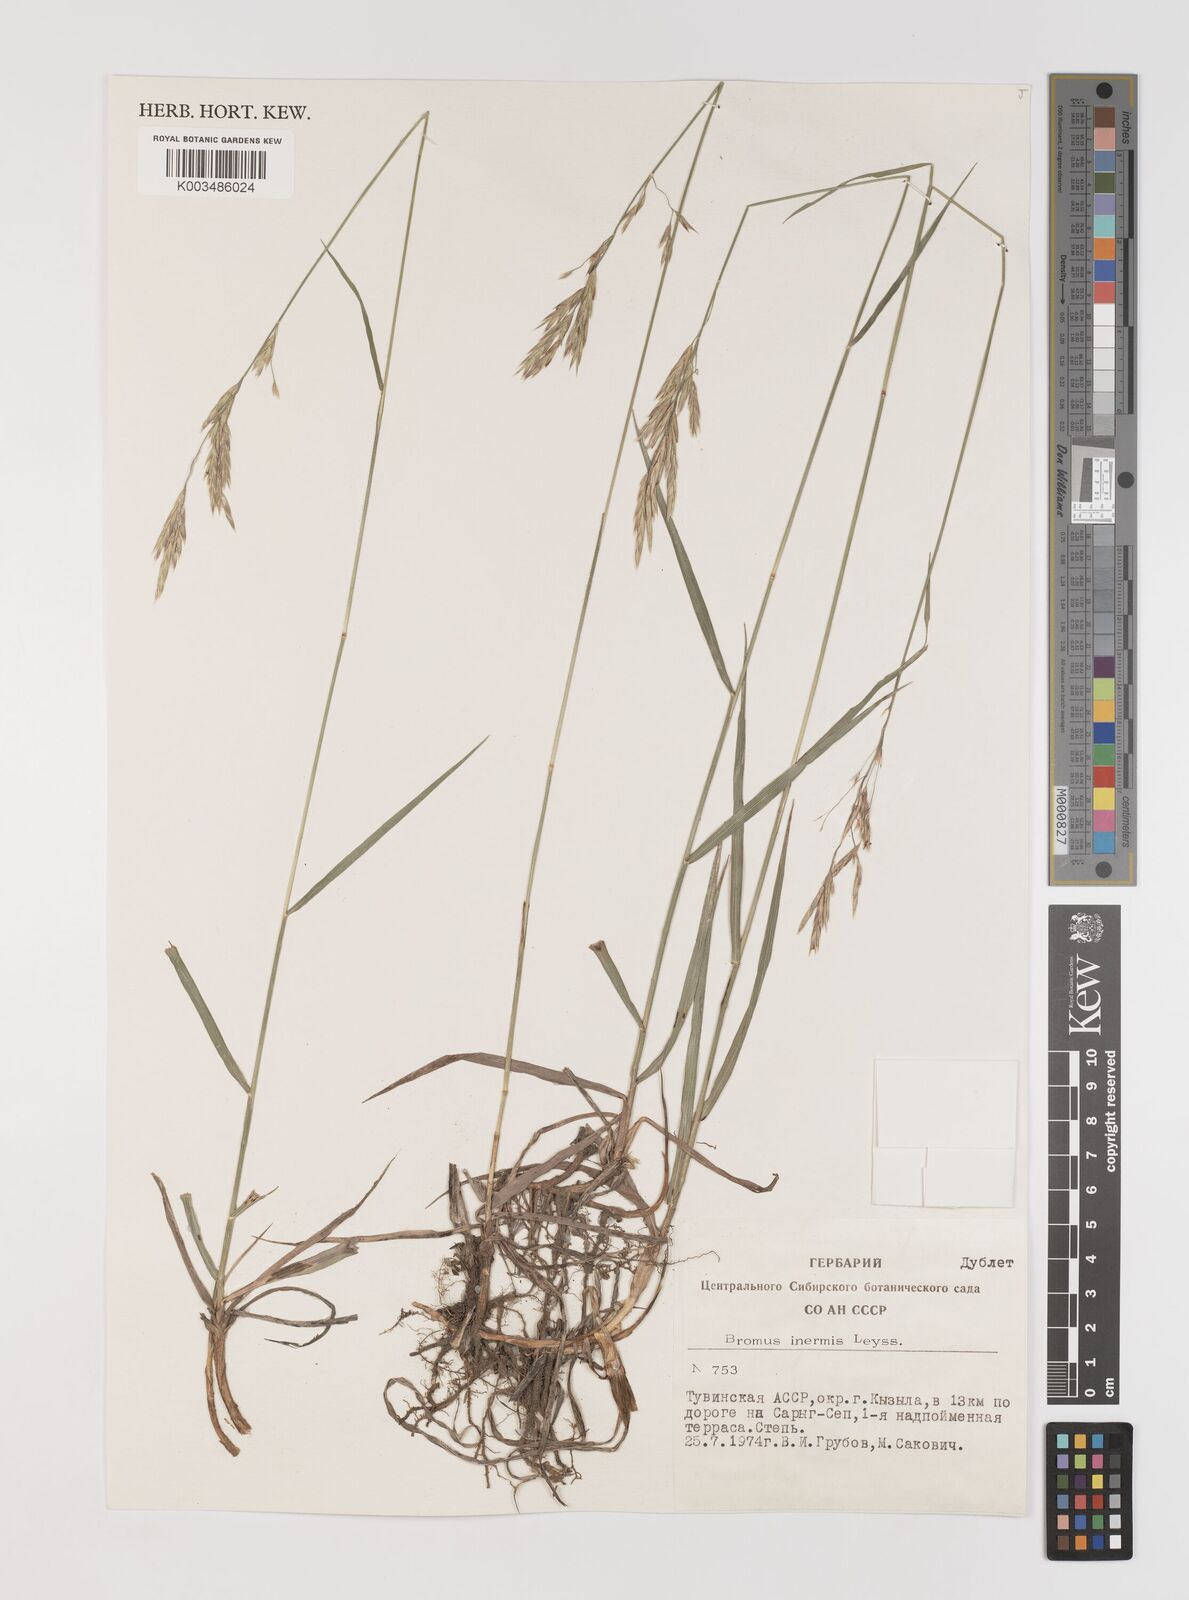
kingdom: Plantae
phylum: Tracheophyta
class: Liliopsida
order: Poales
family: Poaceae
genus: Bromus
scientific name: Bromus inermis
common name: Smooth brome
